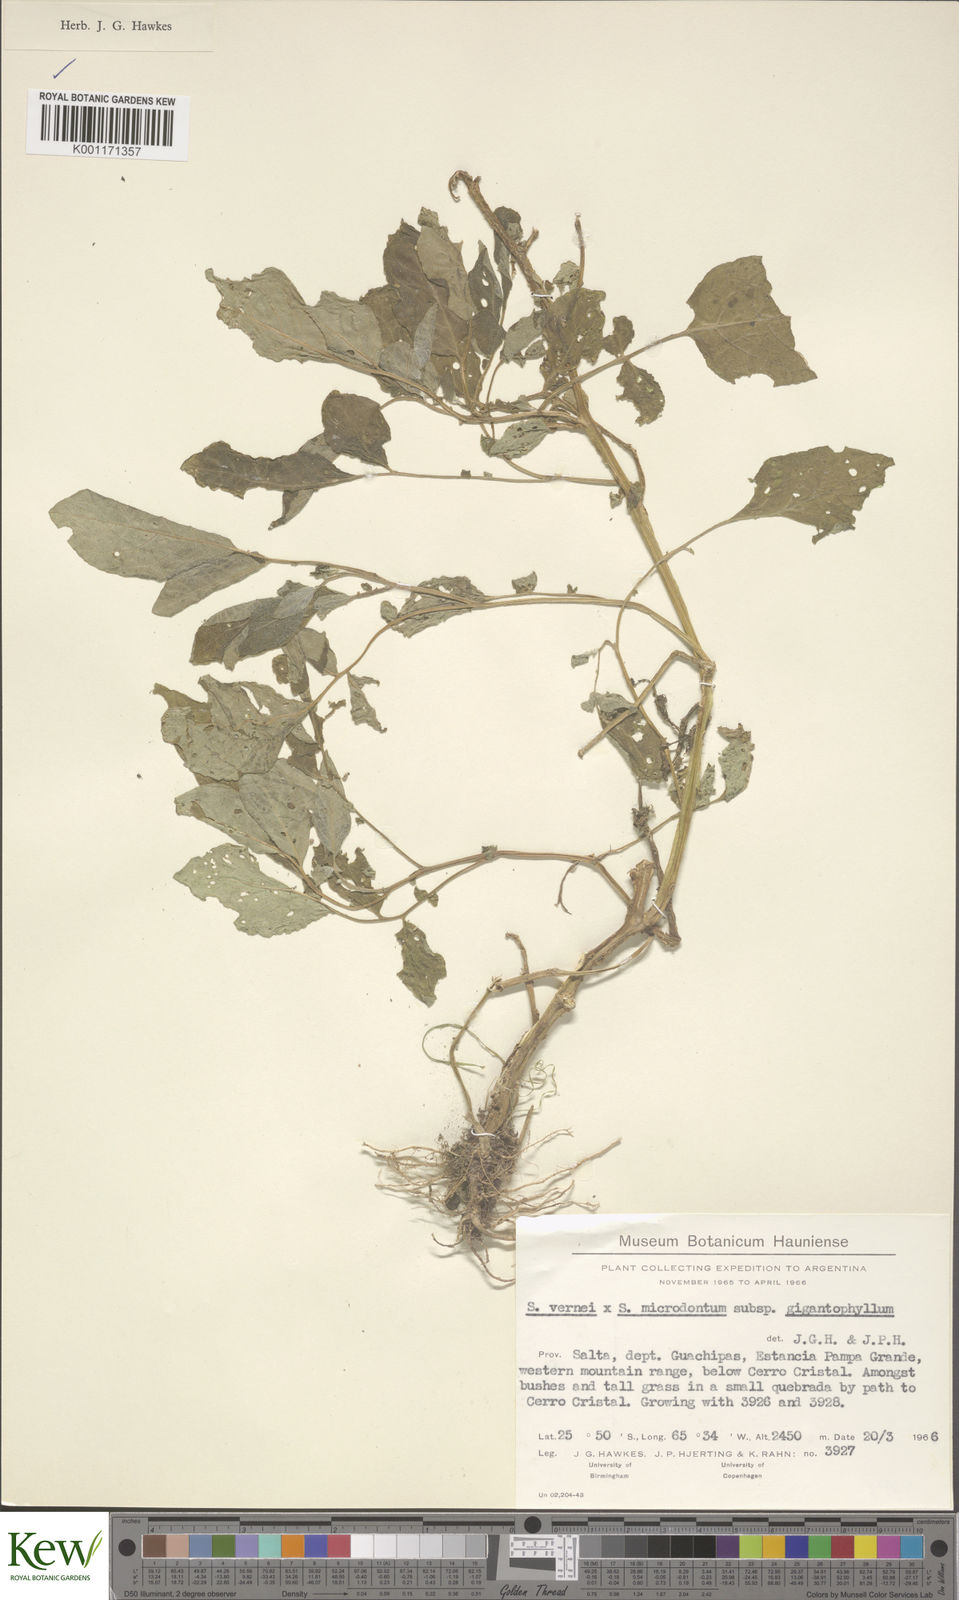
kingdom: Plantae
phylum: Tracheophyta
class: Magnoliopsida
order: Solanales
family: Solanaceae
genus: Solanum
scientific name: Solanum microdontum
